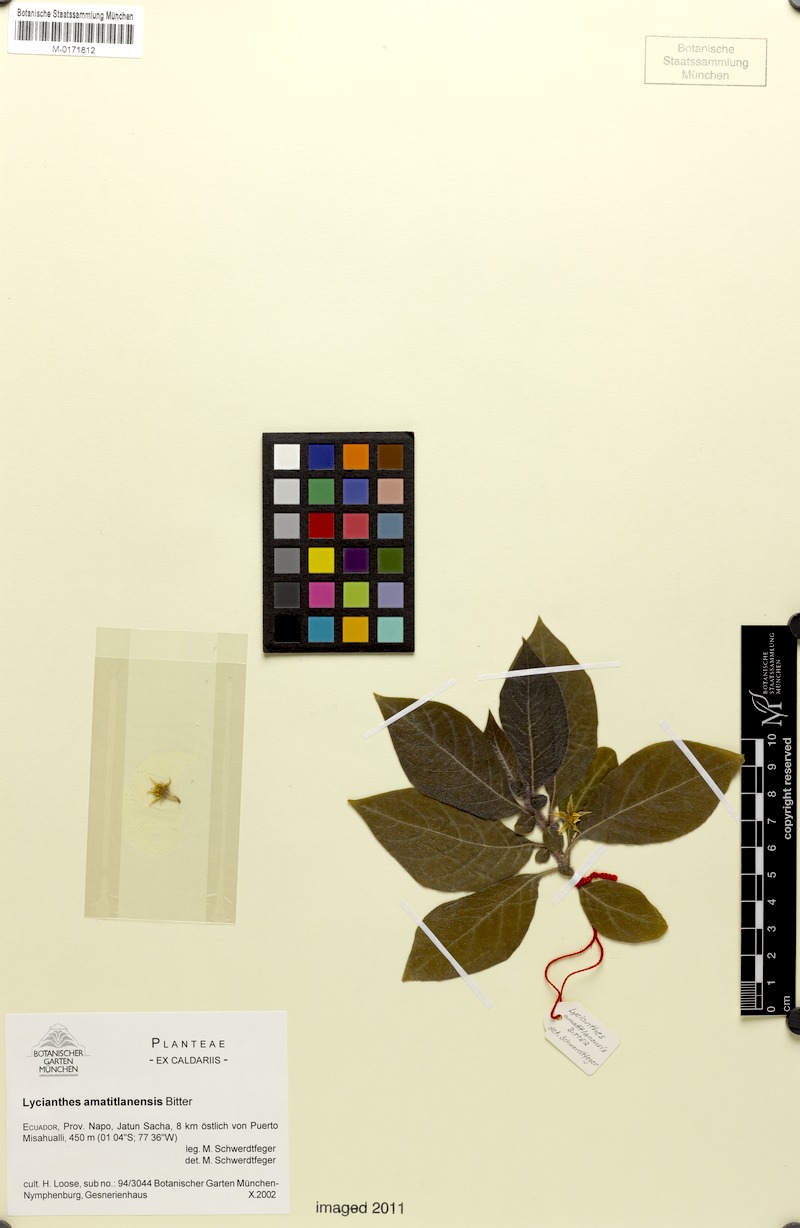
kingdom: Plantae
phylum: Tracheophyta
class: Magnoliopsida
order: Solanales
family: Solanaceae
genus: Lycianthes
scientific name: Lycianthes inaequilatera
